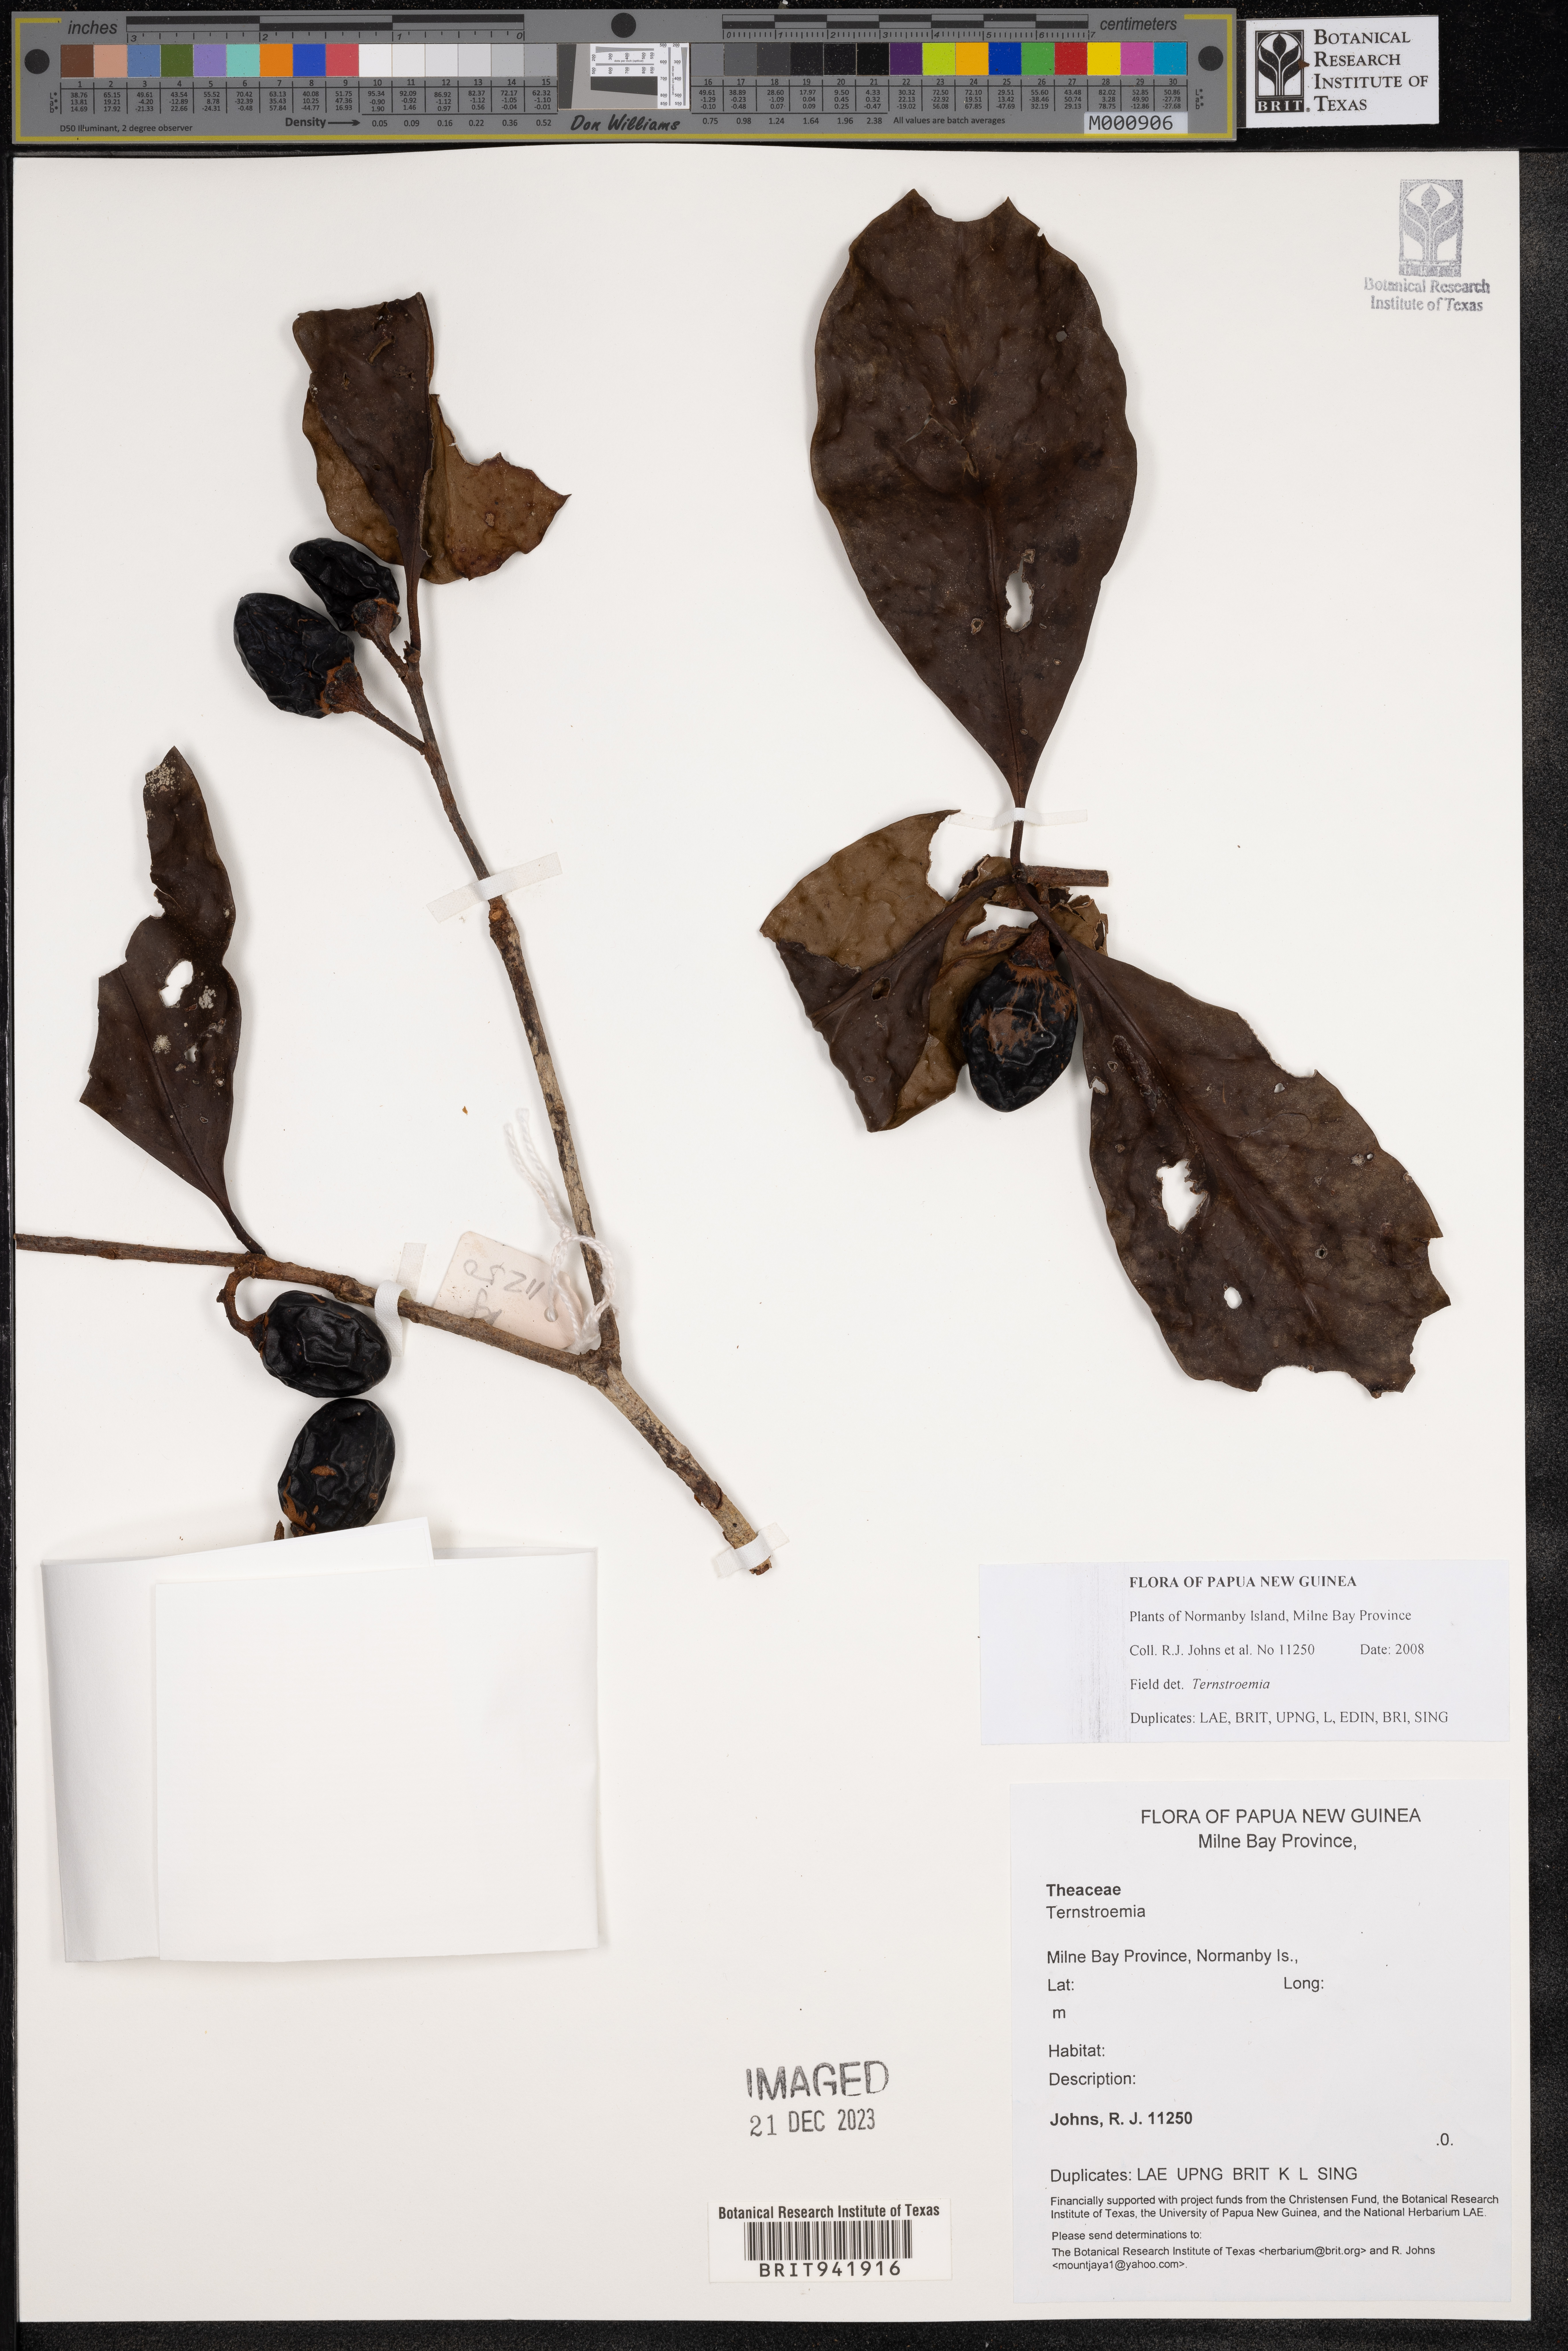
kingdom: Plantae
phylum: Tracheophyta
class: Magnoliopsida
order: Ericales
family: Theaceae
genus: Terustroemia
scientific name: Terustroemia
